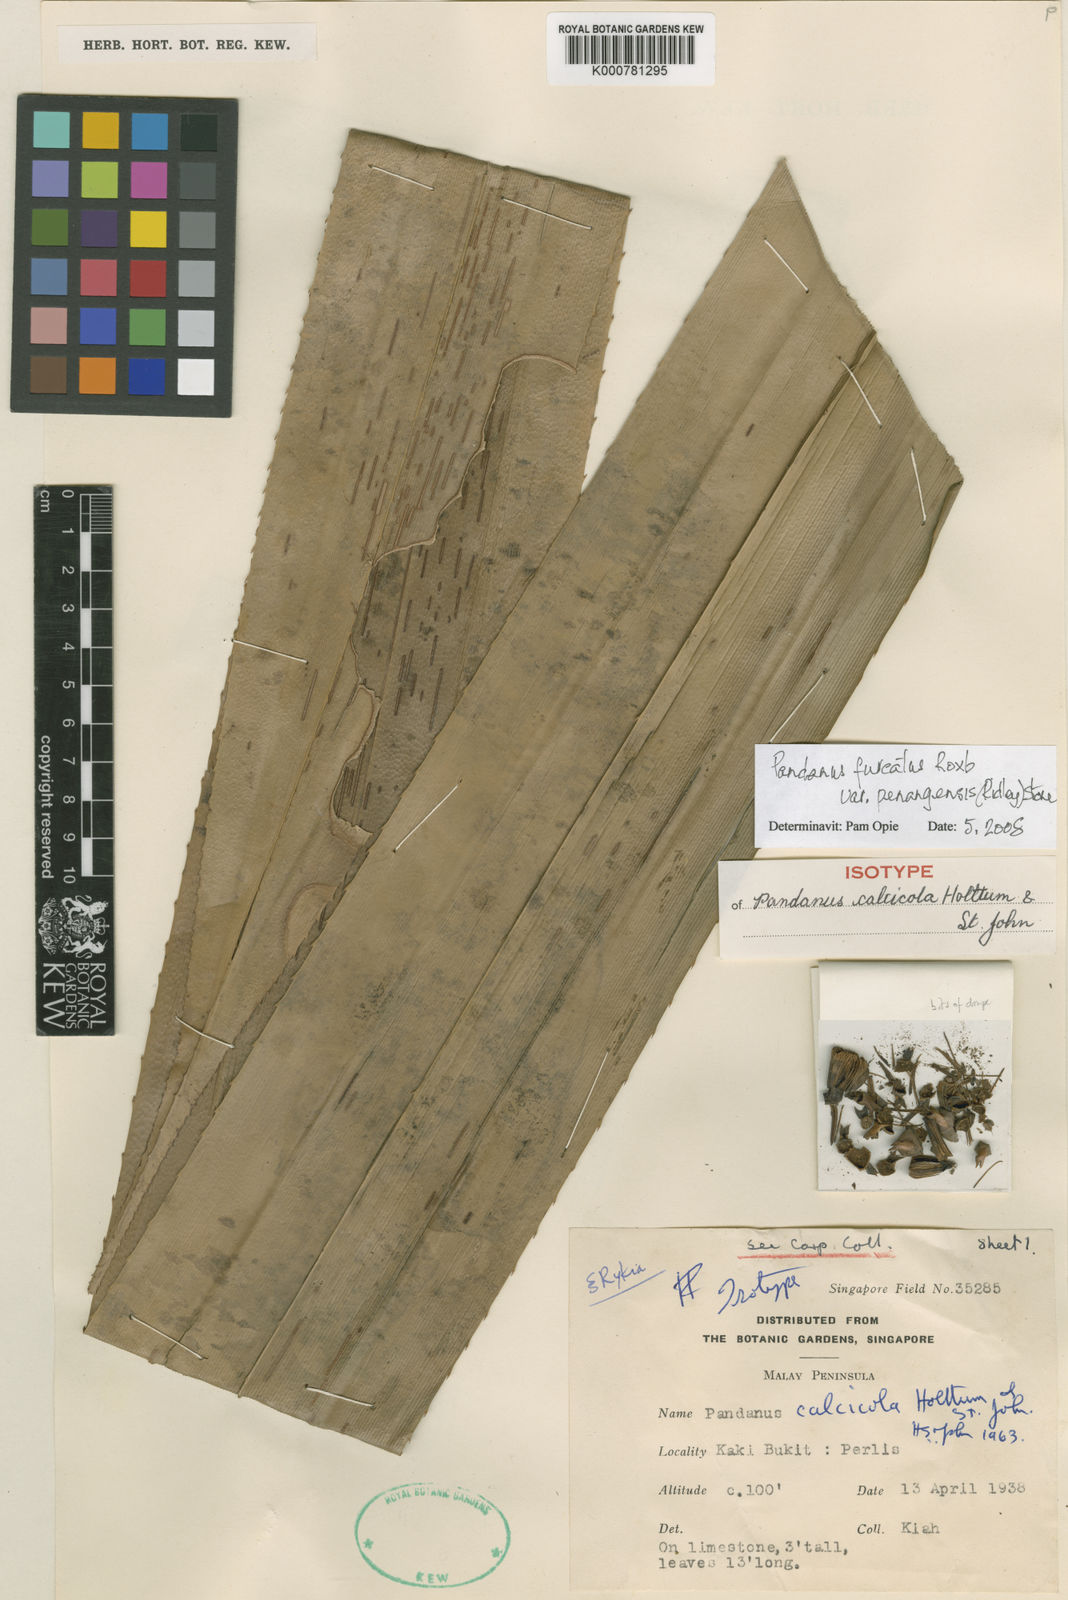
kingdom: Plantae
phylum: Tracheophyta
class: Liliopsida
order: Pandanales
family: Pandanaceae
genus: Pandanus
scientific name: Pandanus penangensis
